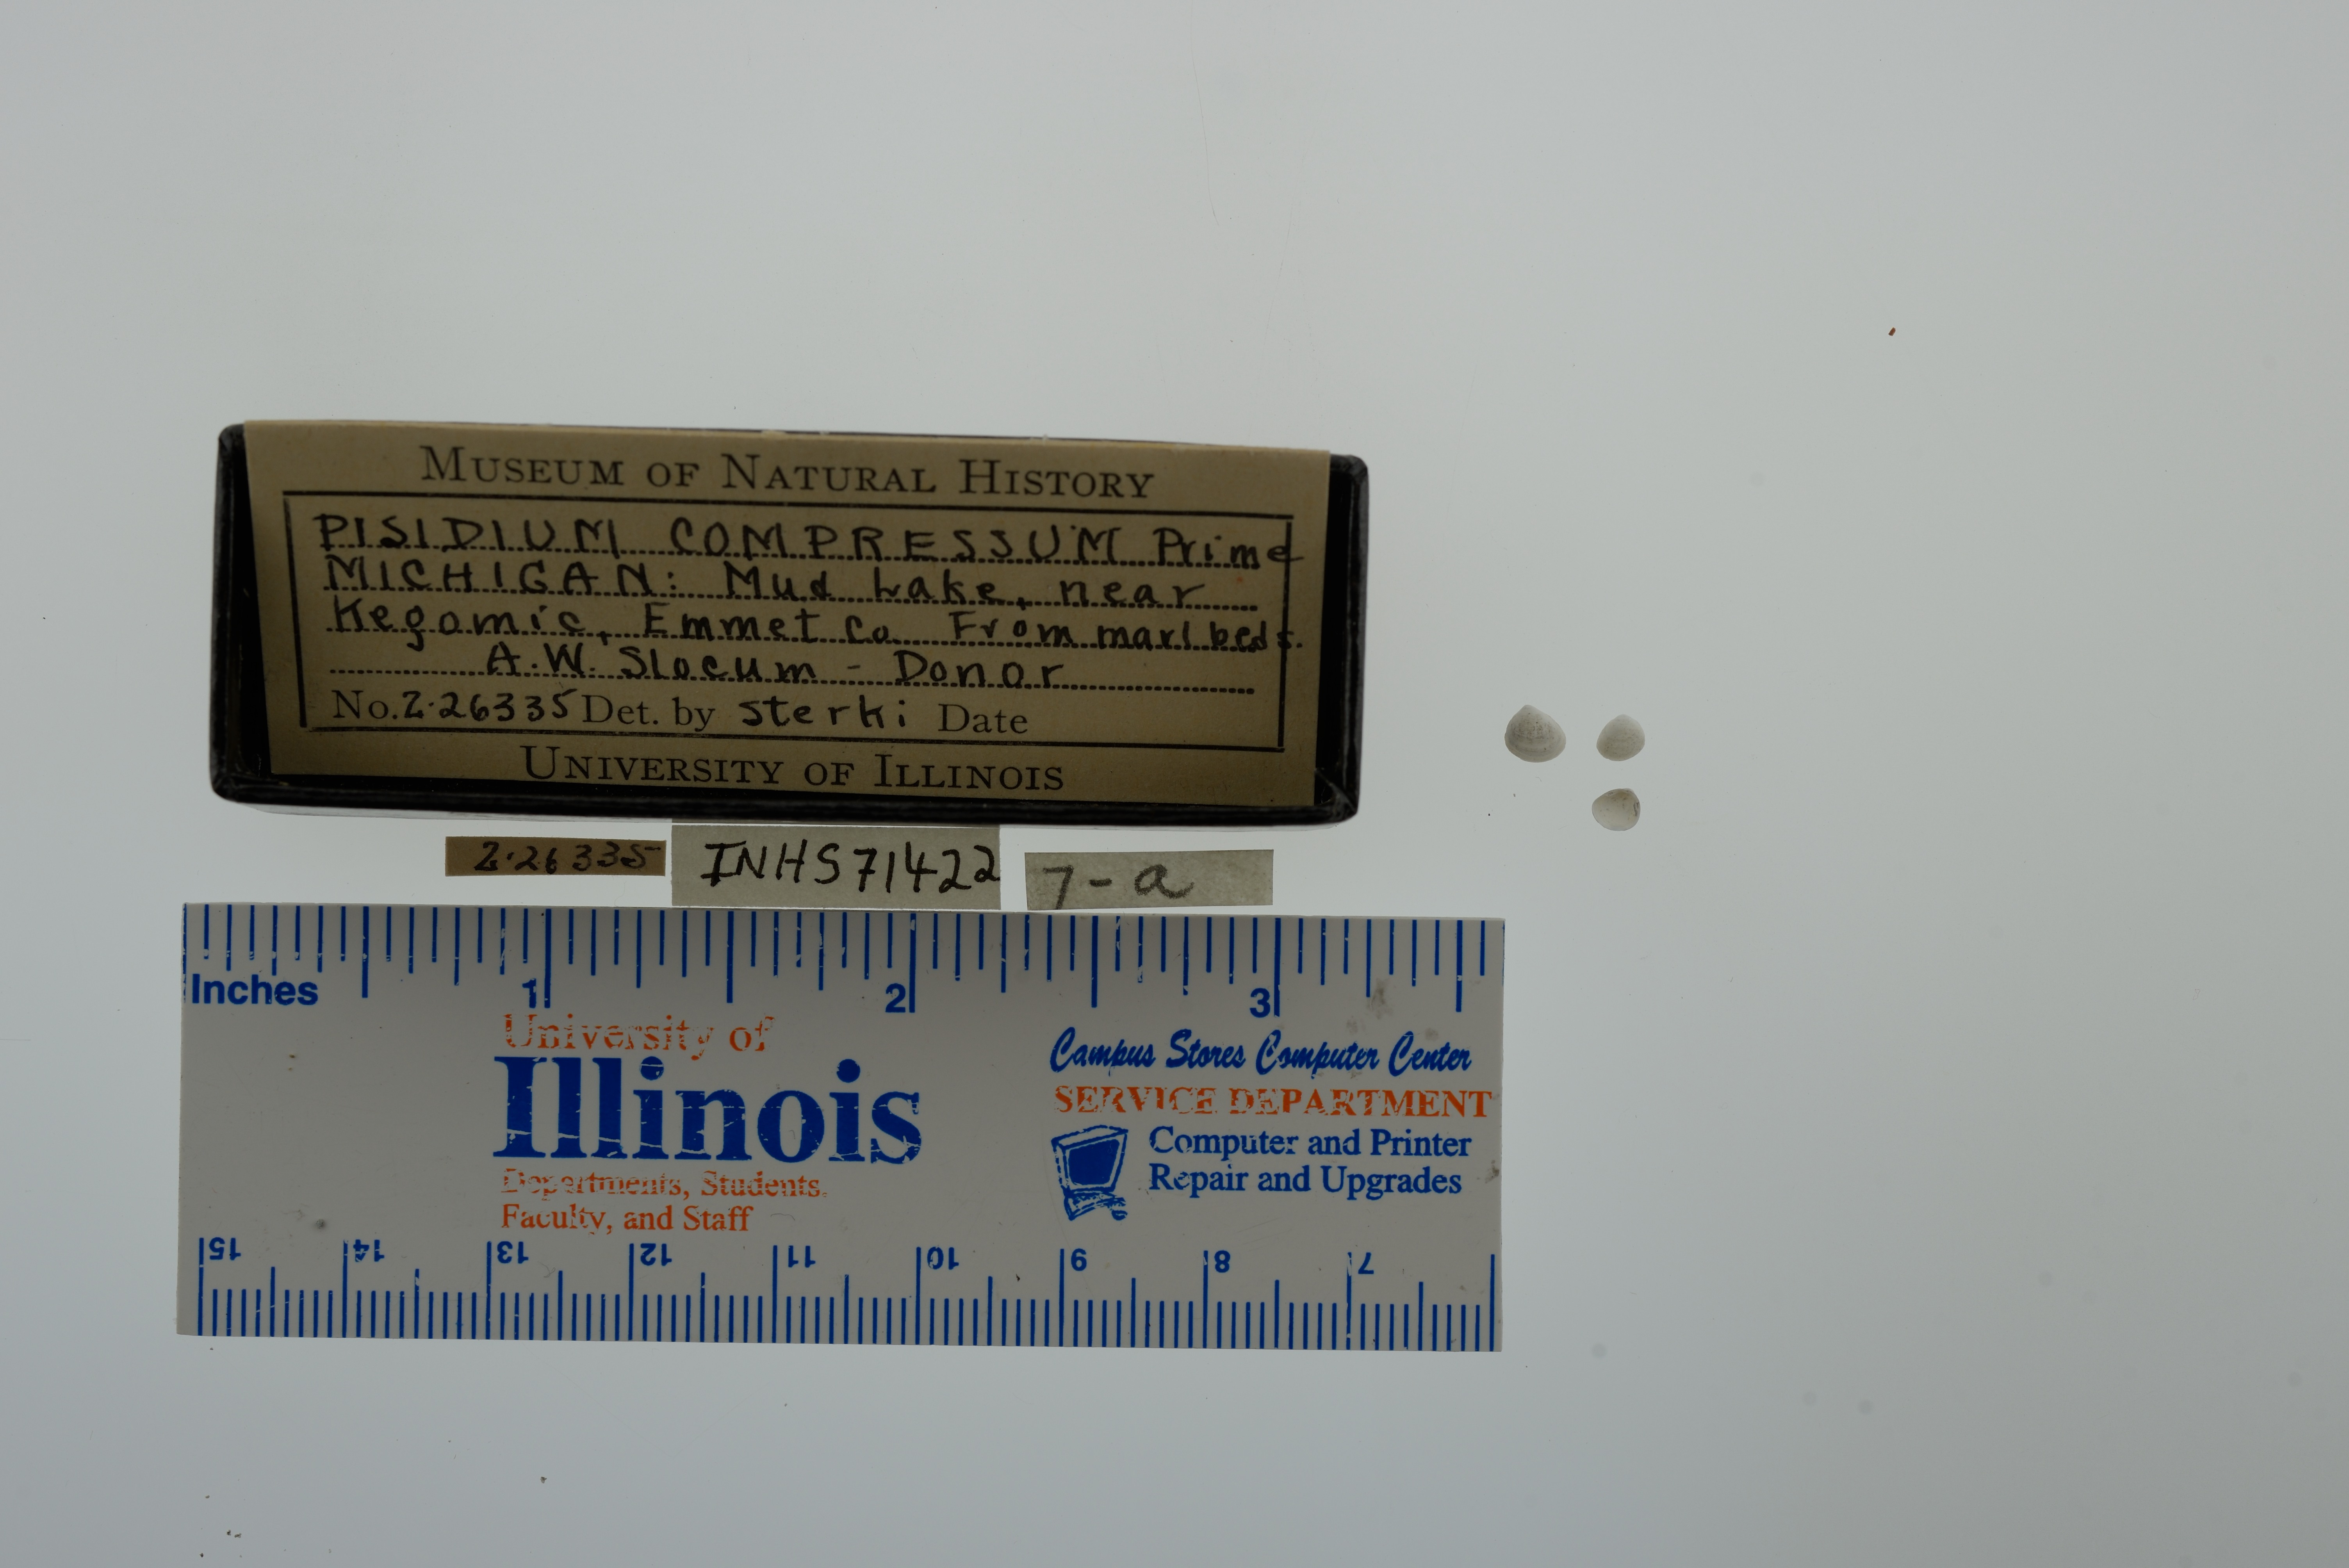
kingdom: Animalia
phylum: Mollusca
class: Bivalvia
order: Sphaeriida
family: Sphaeriidae
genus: Euglesa
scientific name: Euglesa compressa
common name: Ridgedbeak peaclam
